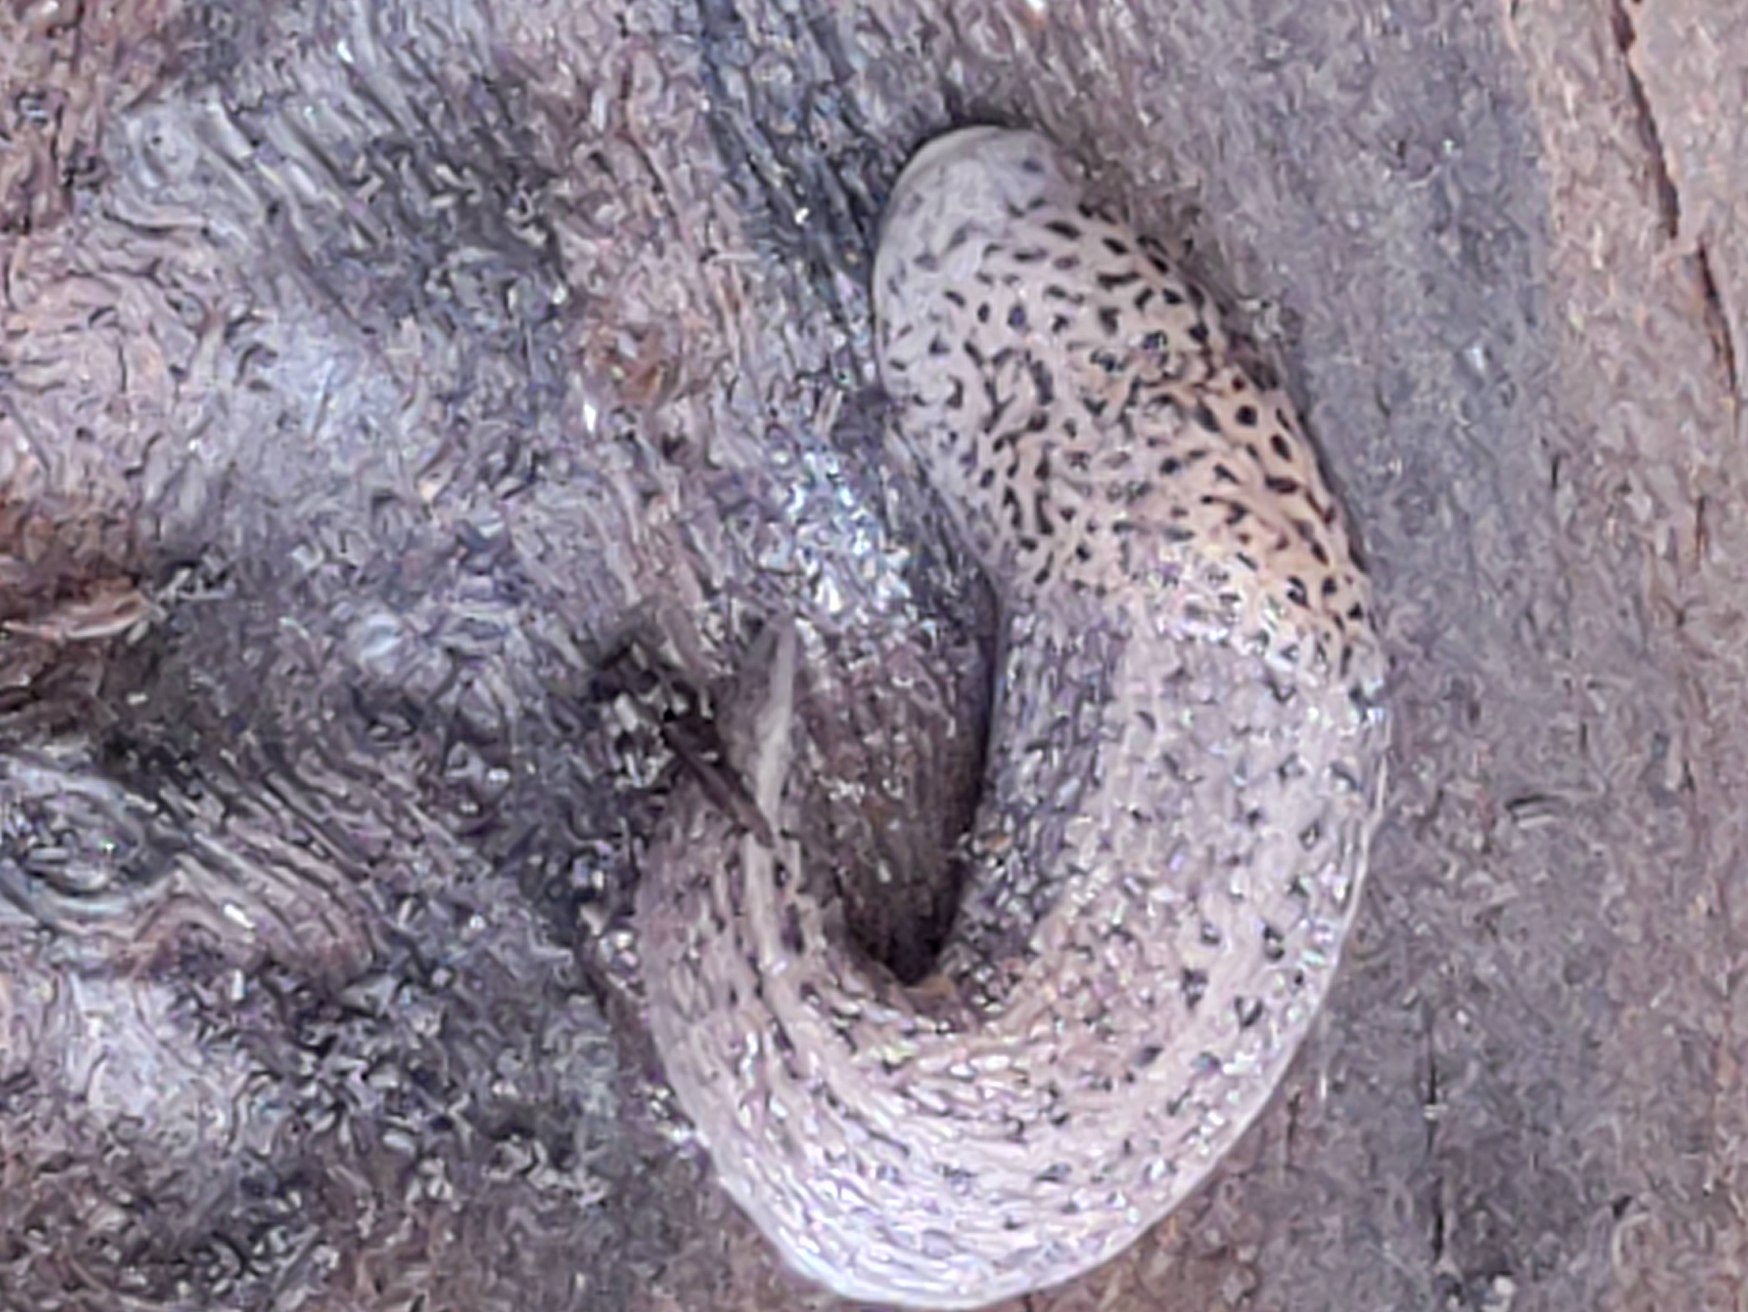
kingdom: Animalia
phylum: Mollusca
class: Gastropoda
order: Stylommatophora
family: Limacidae
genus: Limax
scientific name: Limax maximus
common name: Pantersnegl
